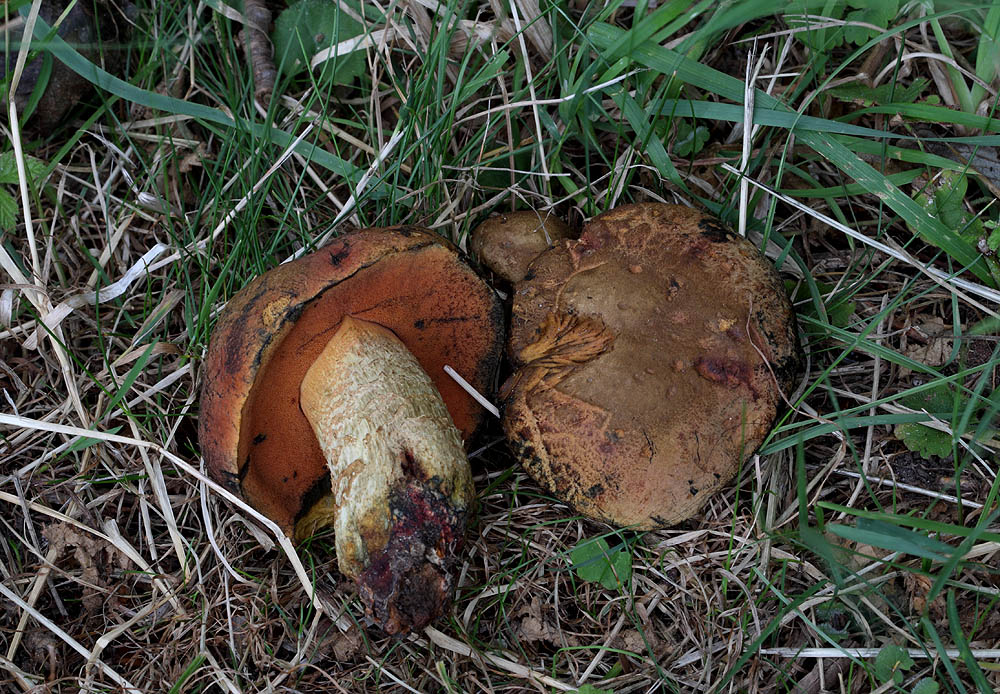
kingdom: Fungi
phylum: Basidiomycota
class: Agaricomycetes
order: Boletales
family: Boletaceae
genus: Suillellus
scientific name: Suillellus queletii
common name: glatstokket indigorørhat
